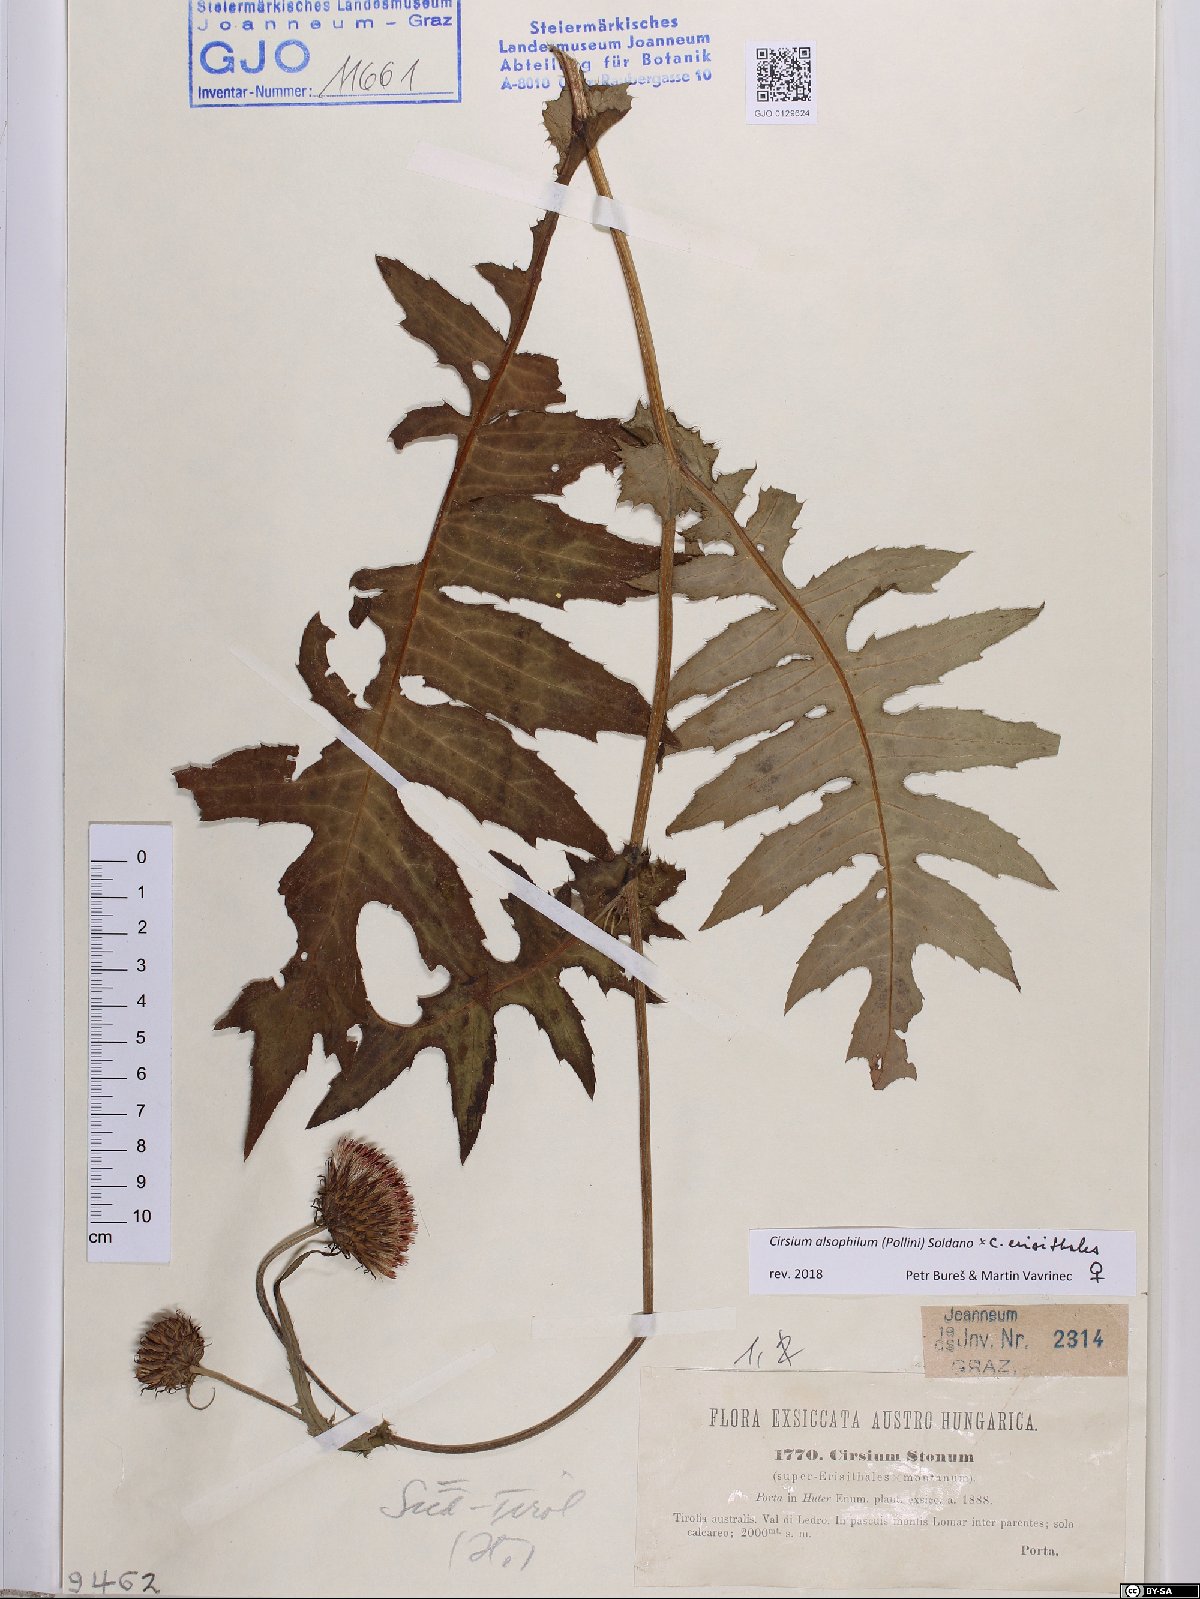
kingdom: Plantae
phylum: Tracheophyta
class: Magnoliopsida
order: Asterales
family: Asteraceae
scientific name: Asteraceae
